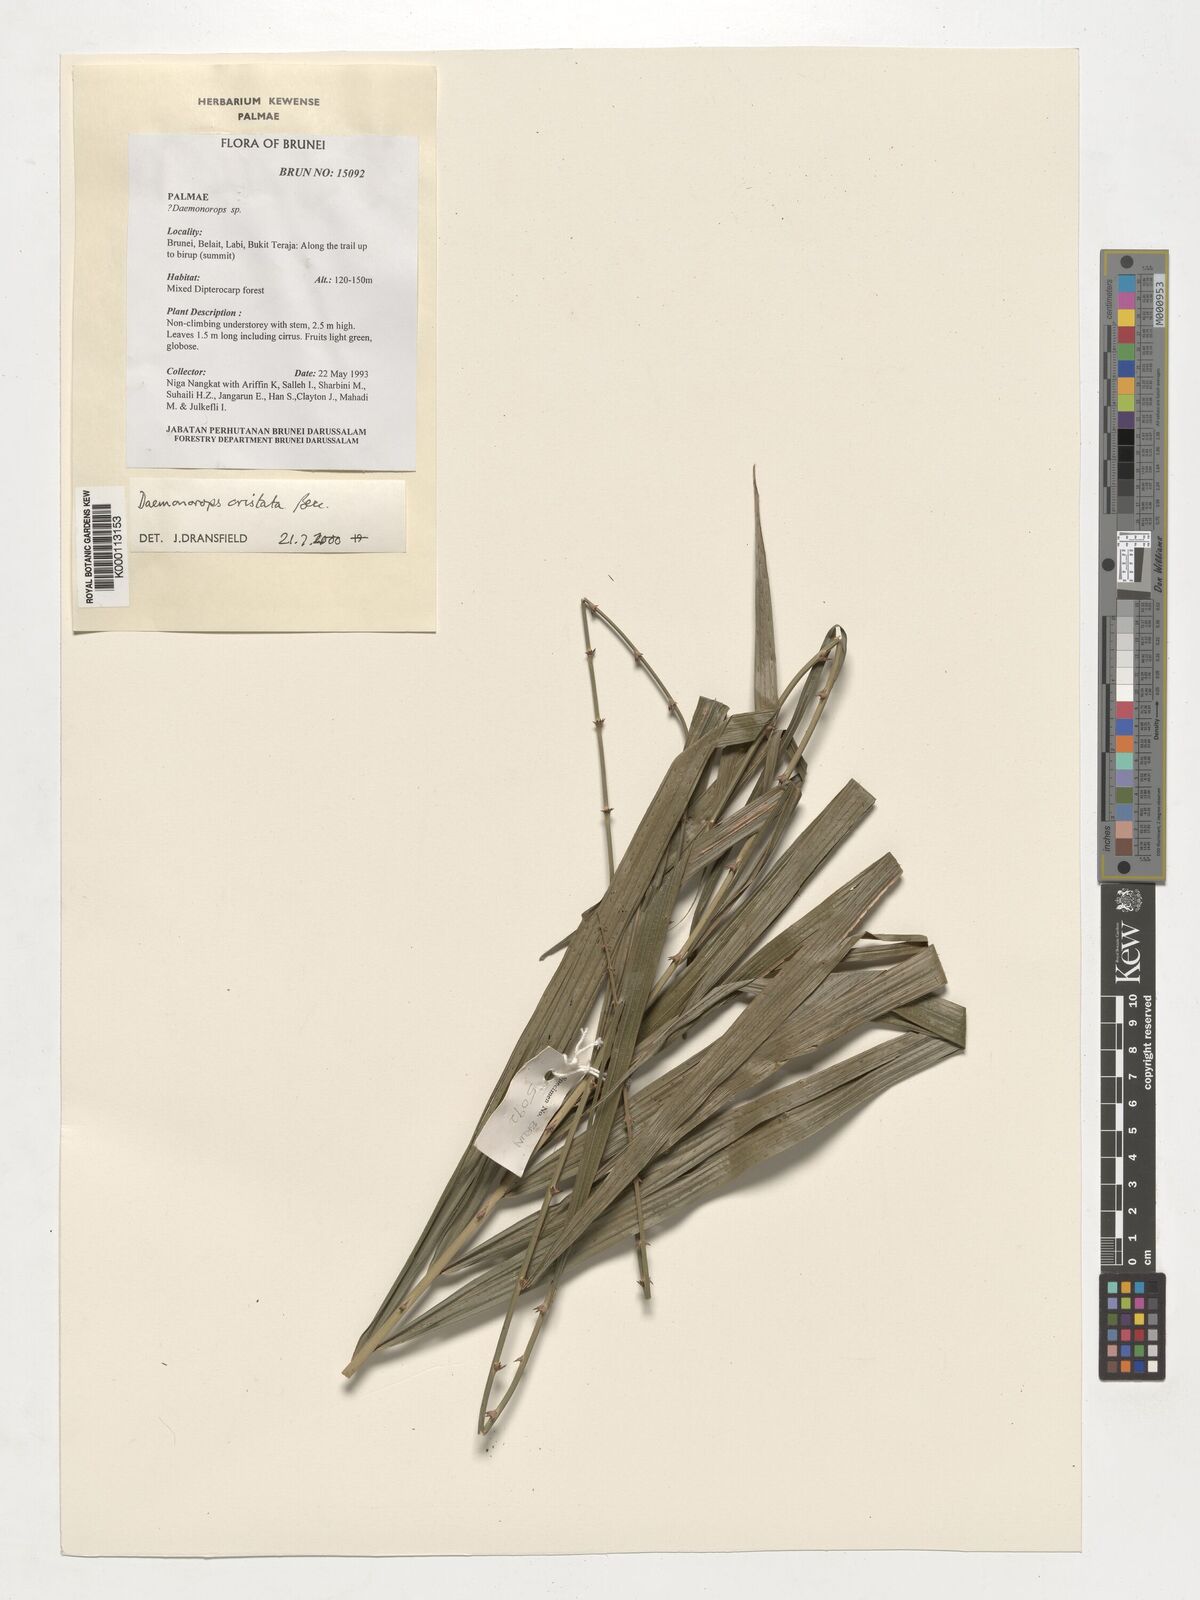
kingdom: Plantae
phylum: Tracheophyta
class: Liliopsida
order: Arecales
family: Arecaceae
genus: Calamus
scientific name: Calamus cristatus
